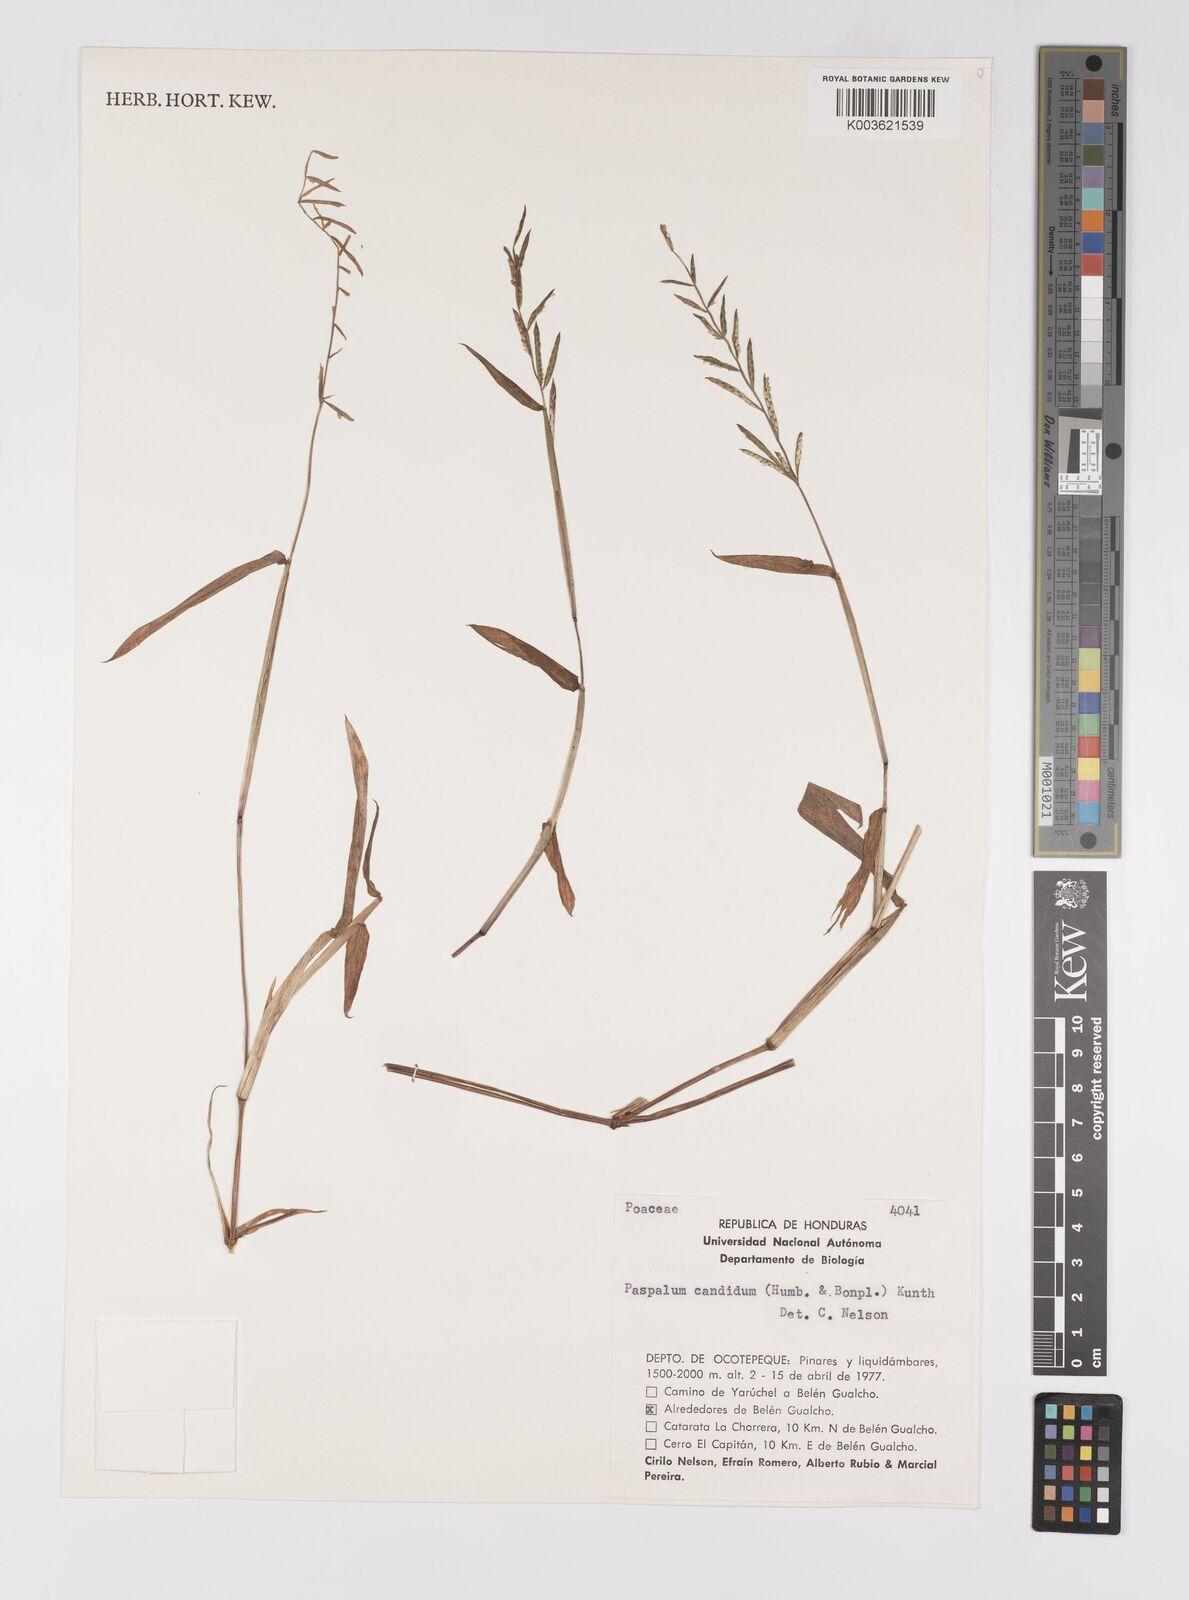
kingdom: Plantae
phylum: Tracheophyta
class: Liliopsida
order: Poales
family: Poaceae
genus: Paspalum
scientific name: Paspalum candidum
